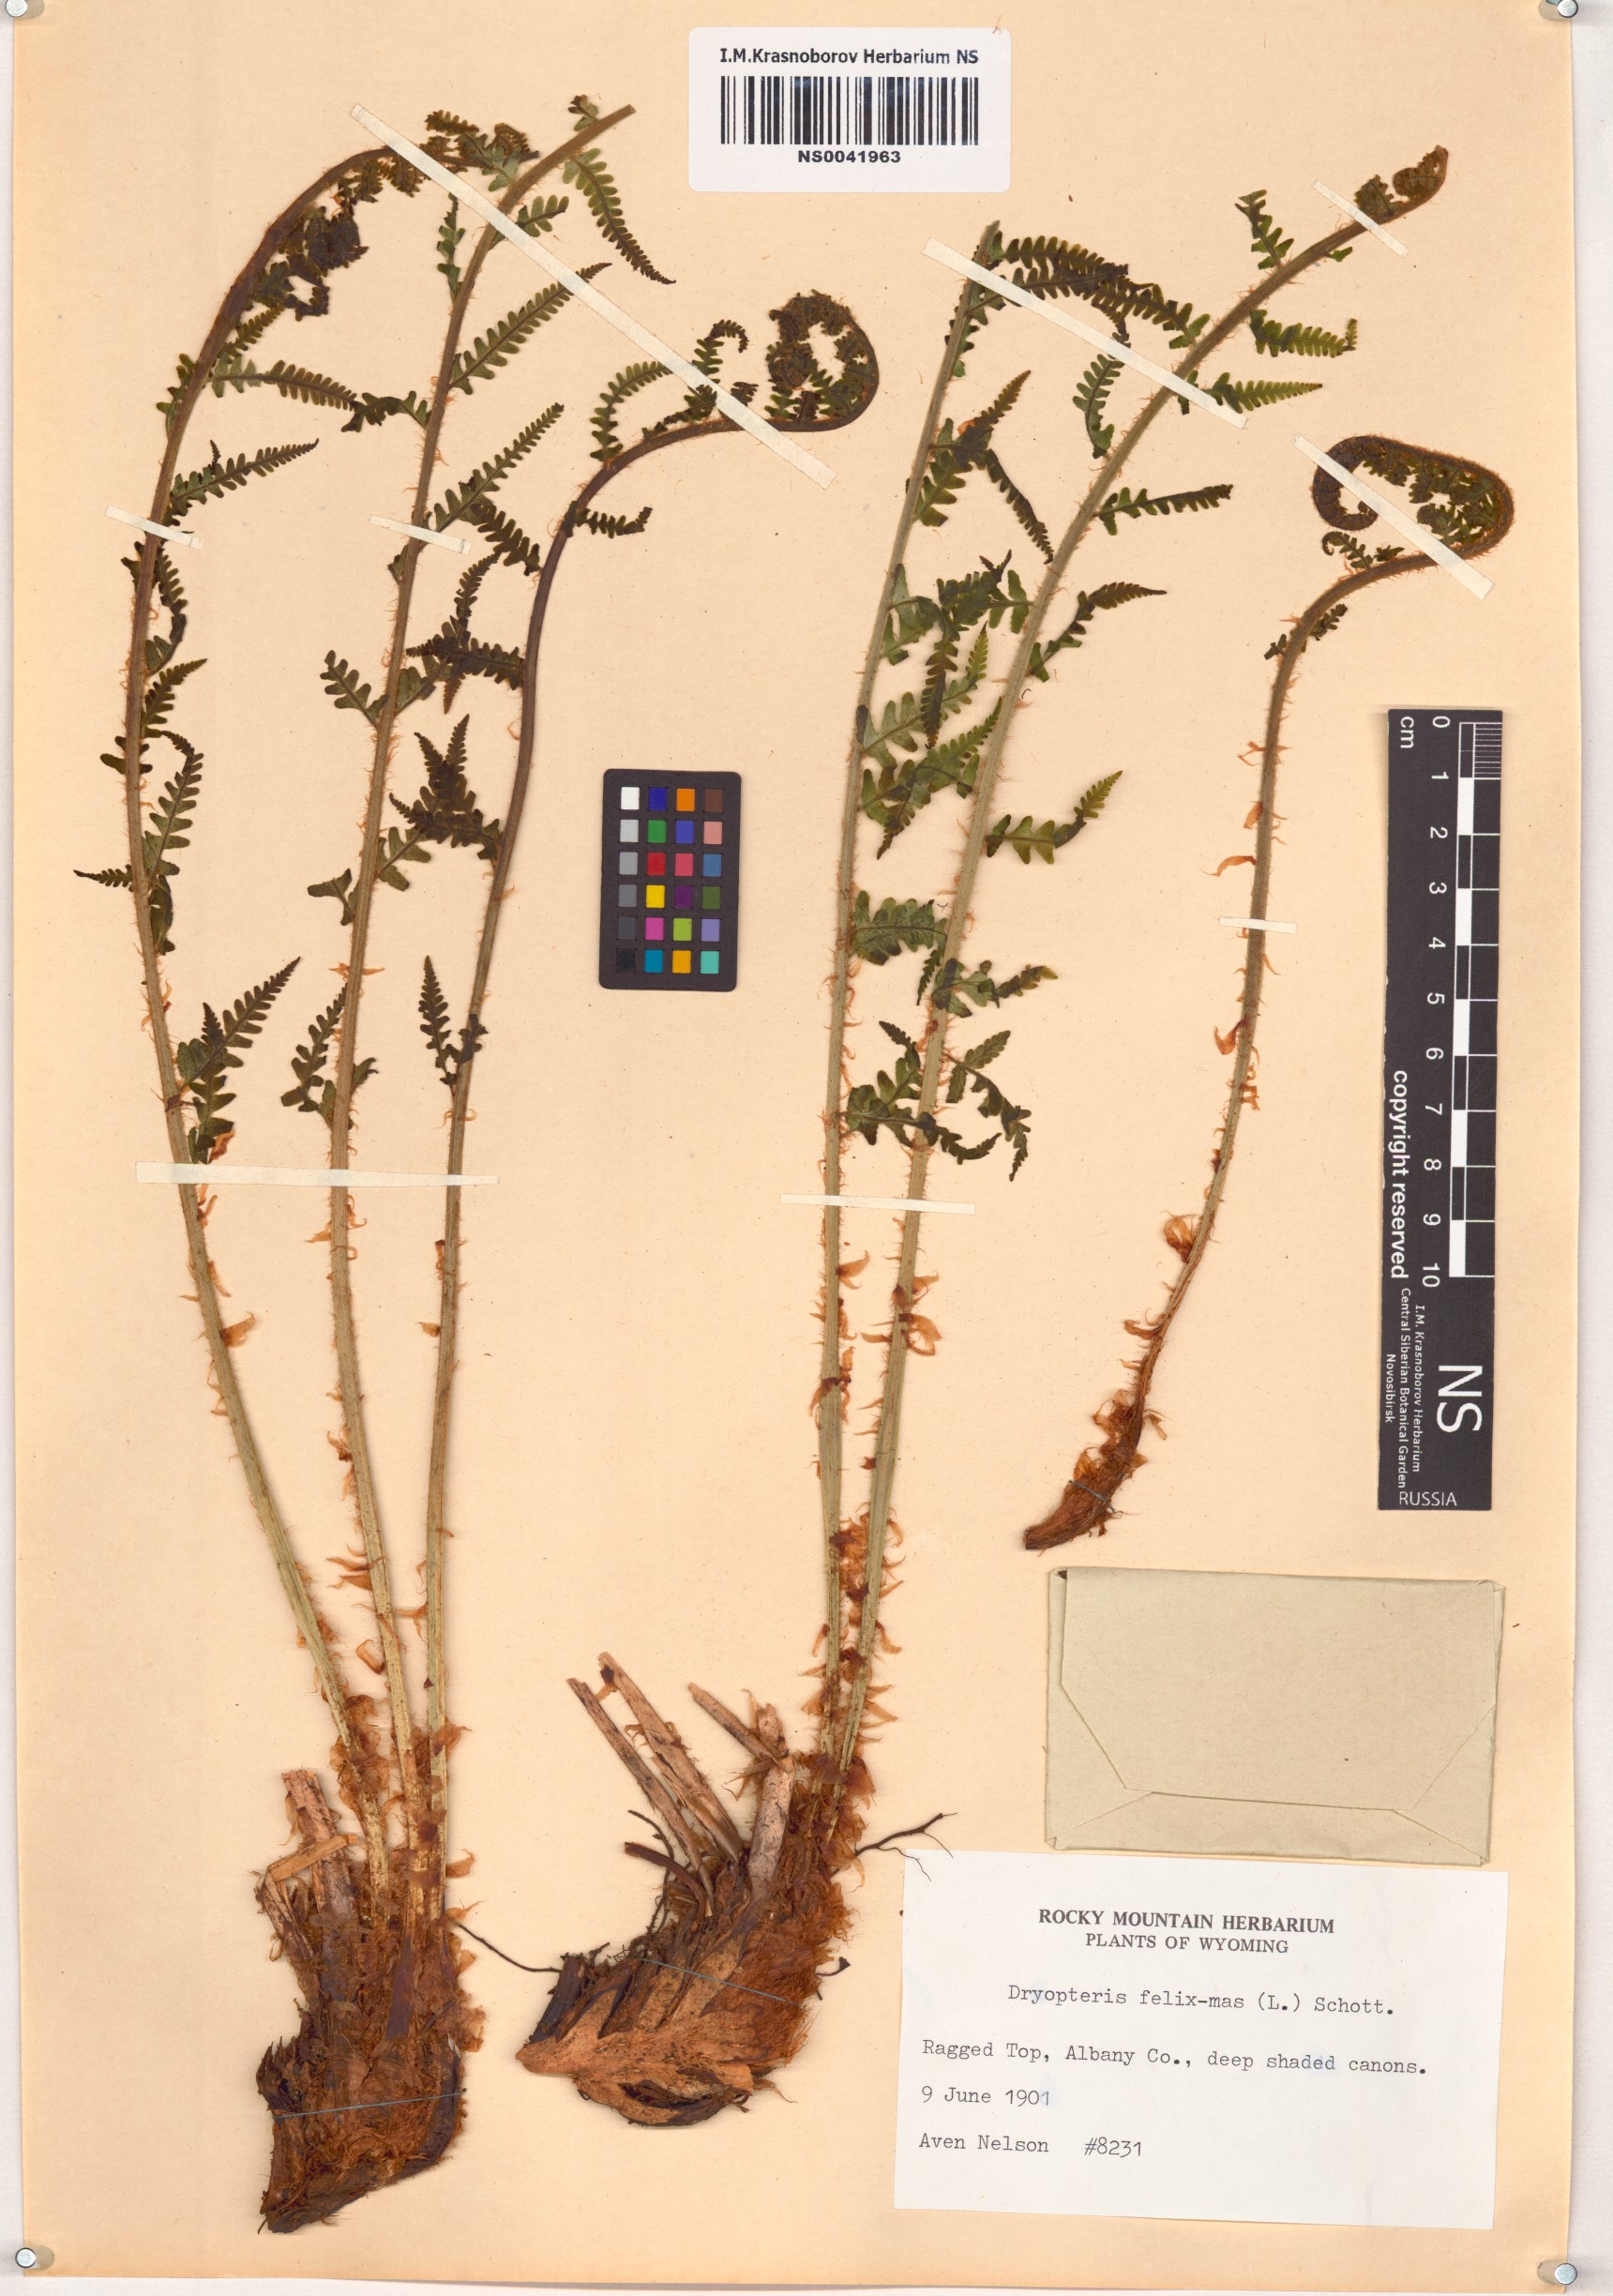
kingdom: Plantae
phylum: Tracheophyta
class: Polypodiopsida
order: Polypodiales
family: Dryopteridaceae
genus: Dryopteris
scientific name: Dryopteris filix-mas
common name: Male fern
